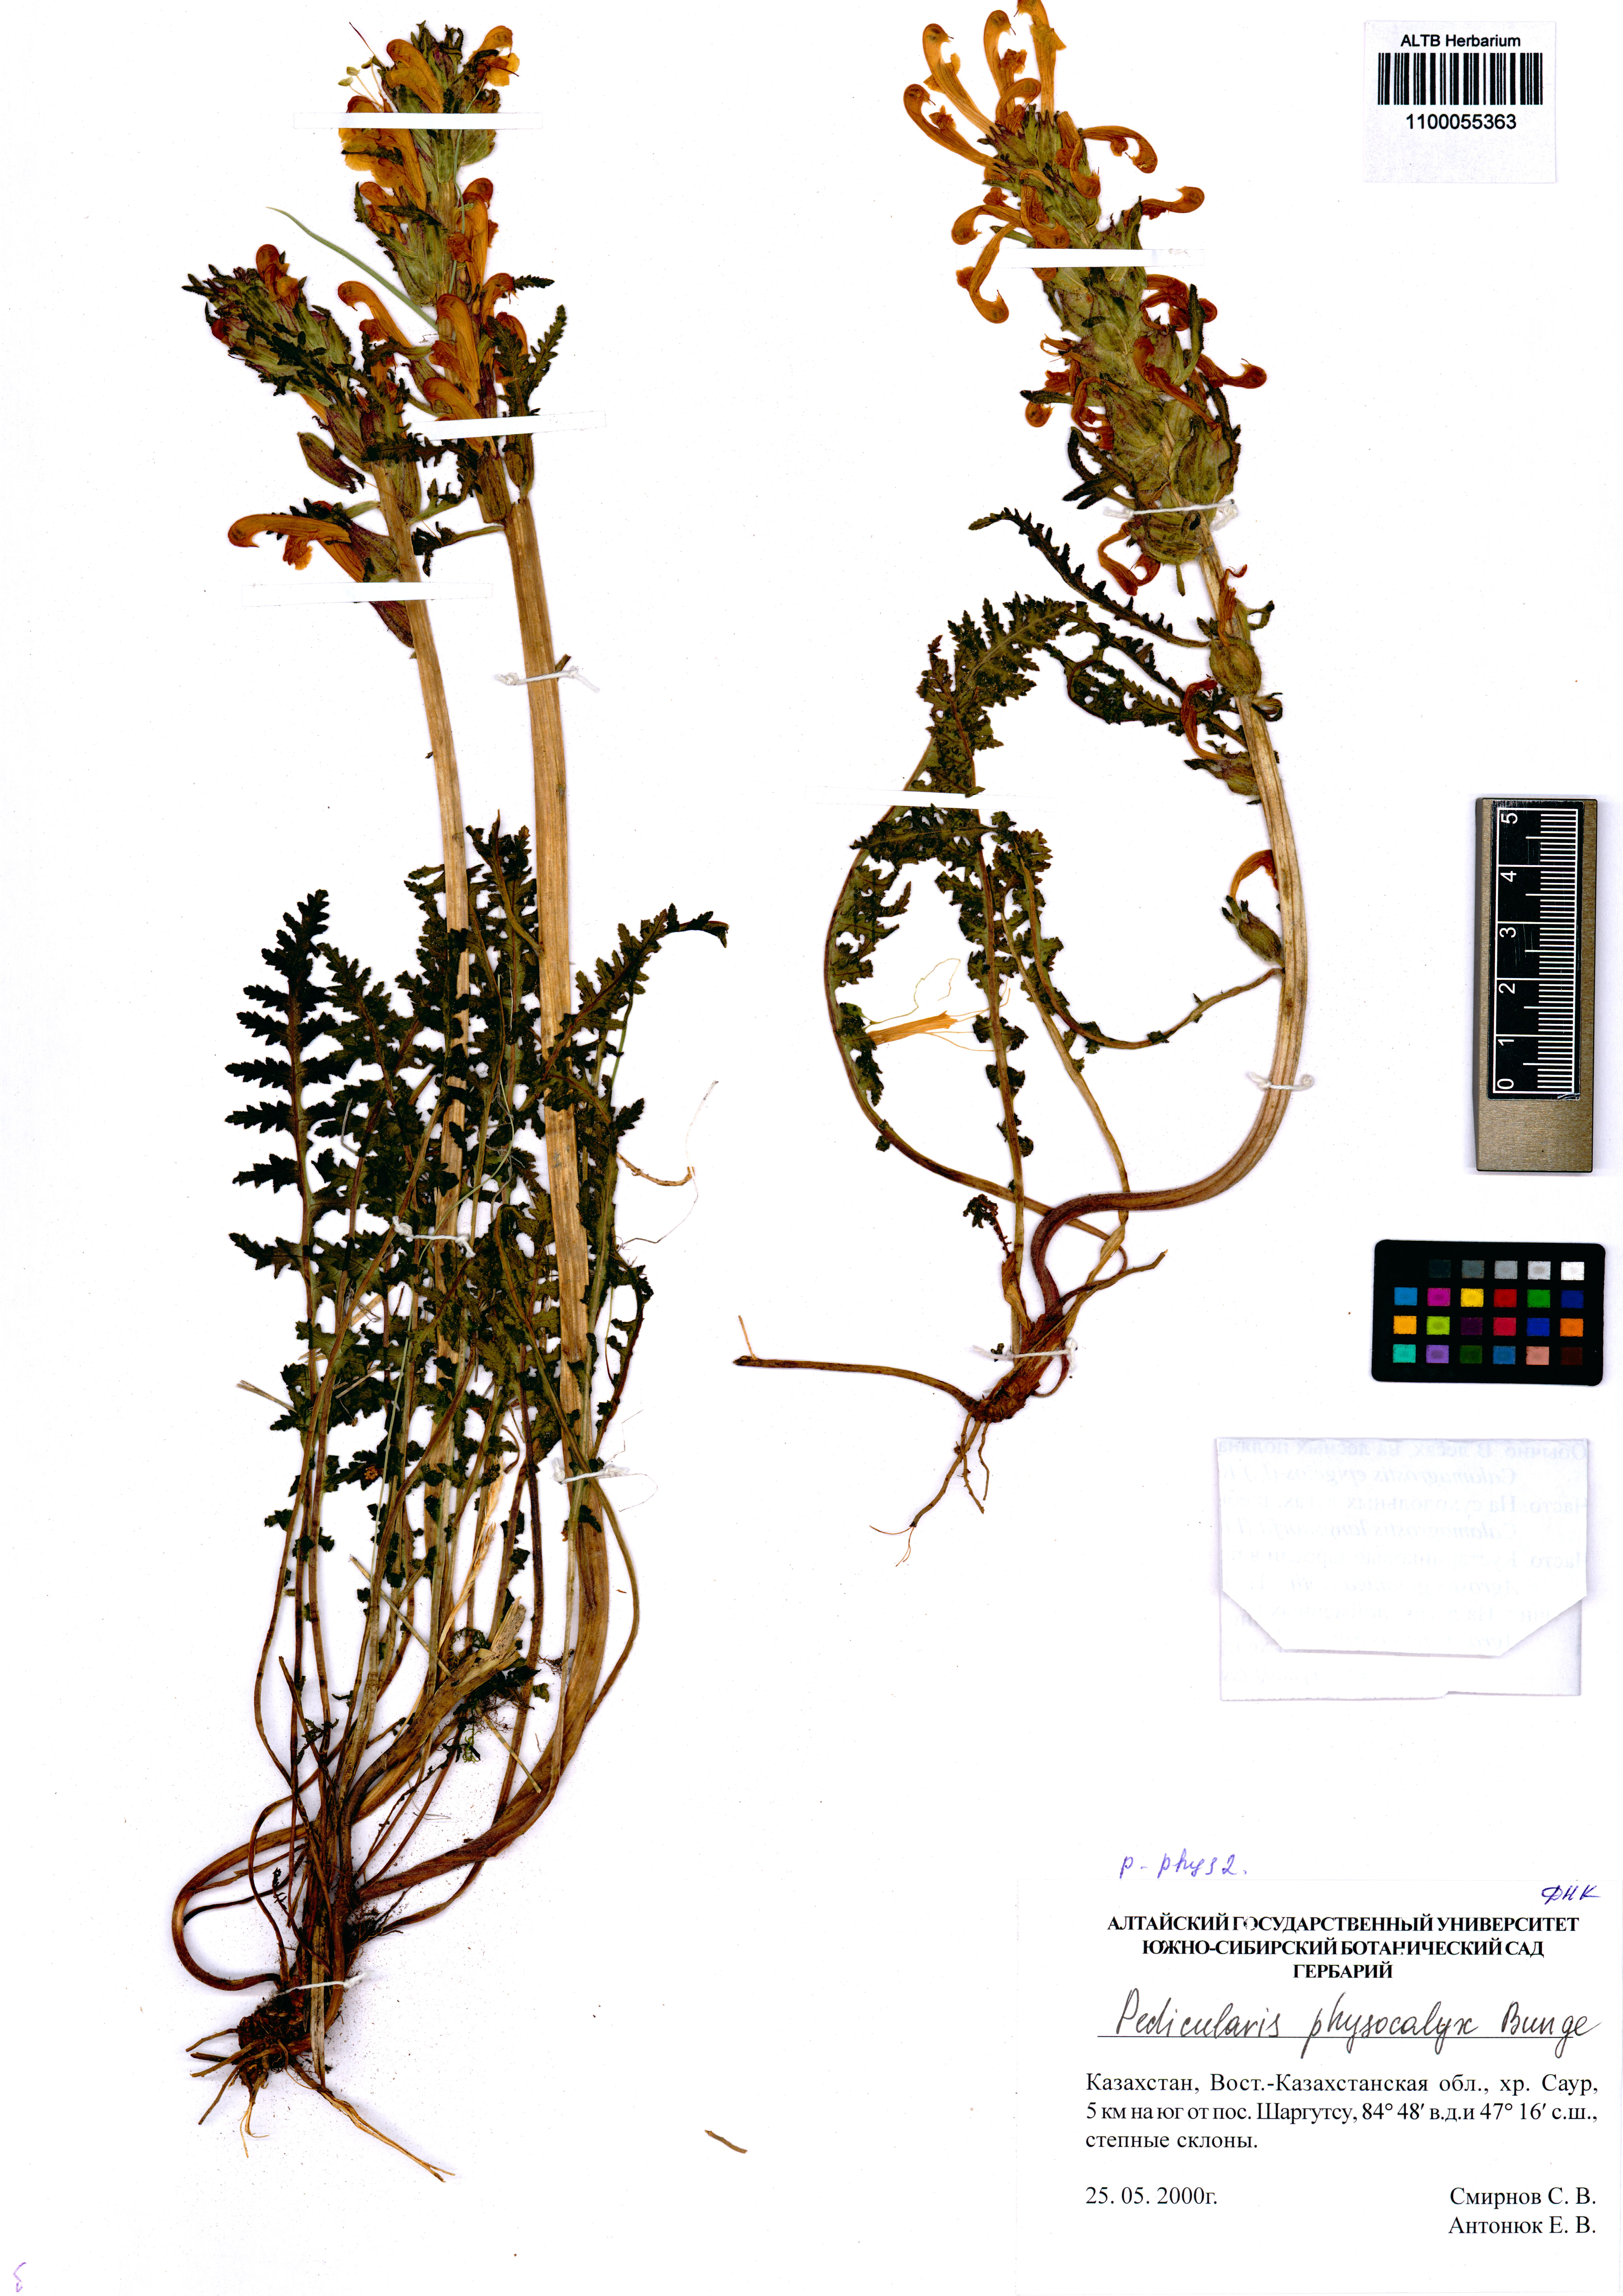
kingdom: Plantae
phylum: Tracheophyta
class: Magnoliopsida
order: Lamiales
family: Orobanchaceae
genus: Pedicularis
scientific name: Pedicularis physocalyx
